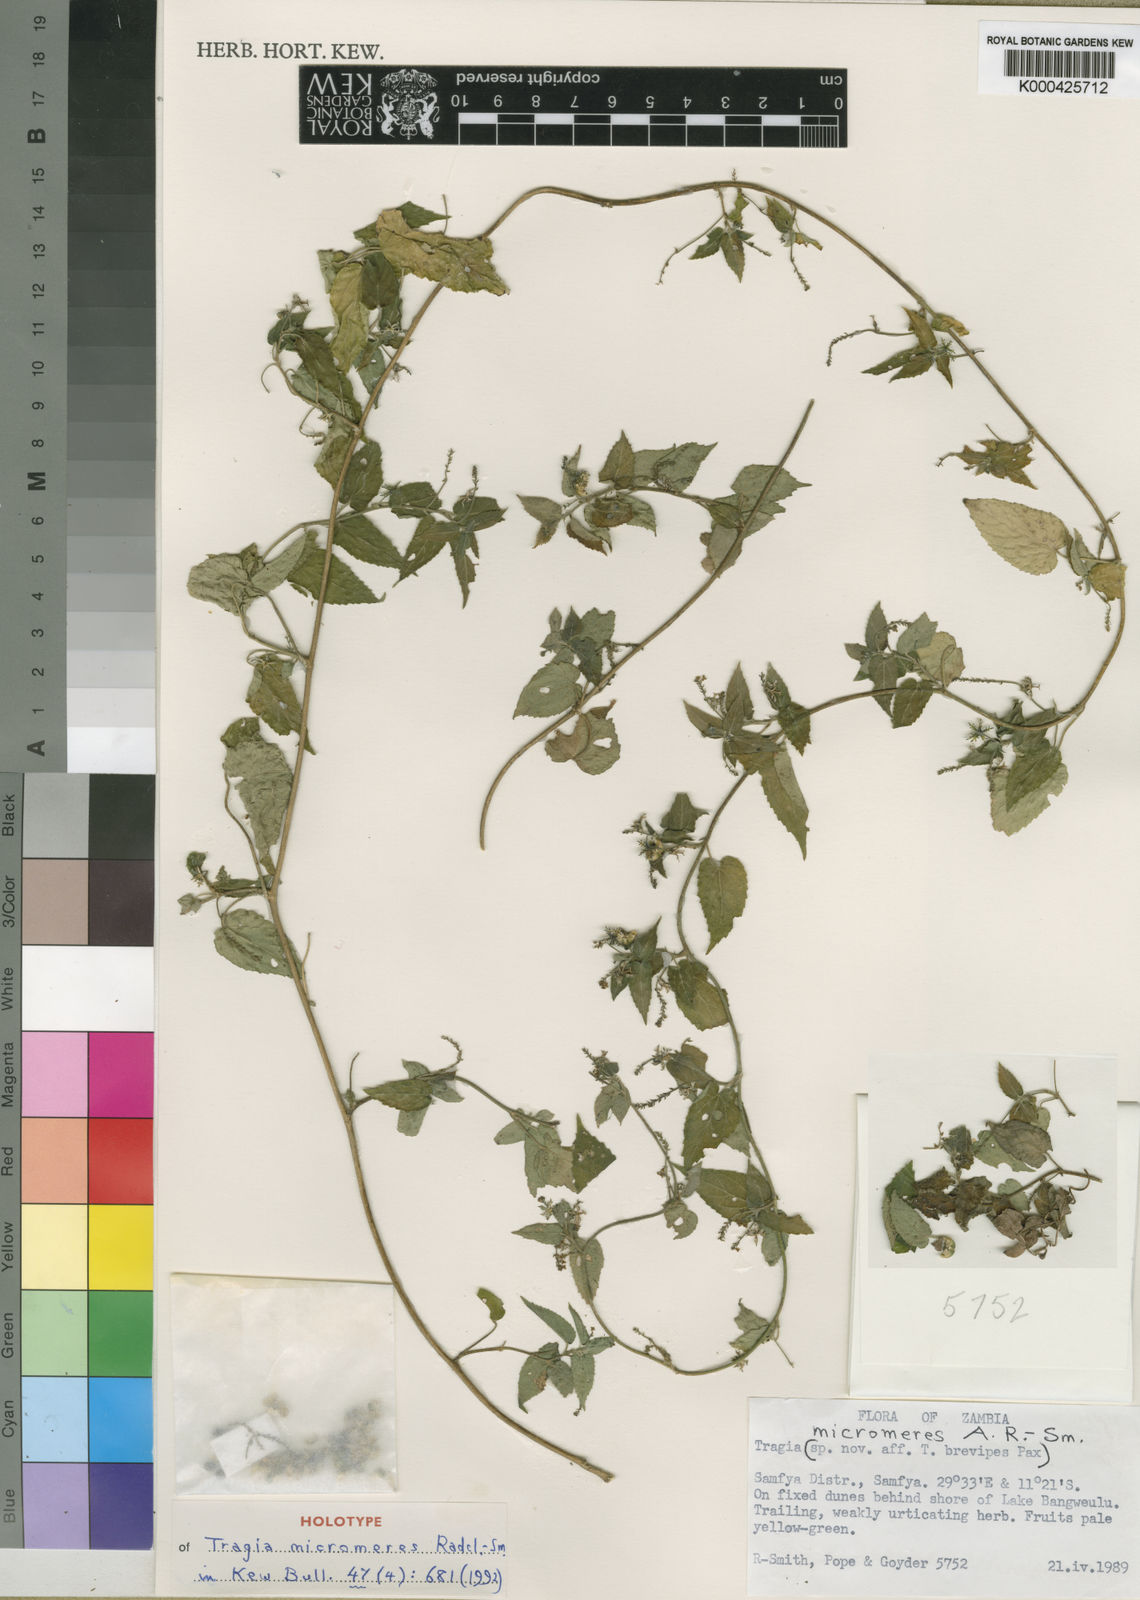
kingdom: Plantae
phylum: Tracheophyta
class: Magnoliopsida
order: Malpighiales
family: Euphorbiaceae
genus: Tragia
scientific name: Tragia
